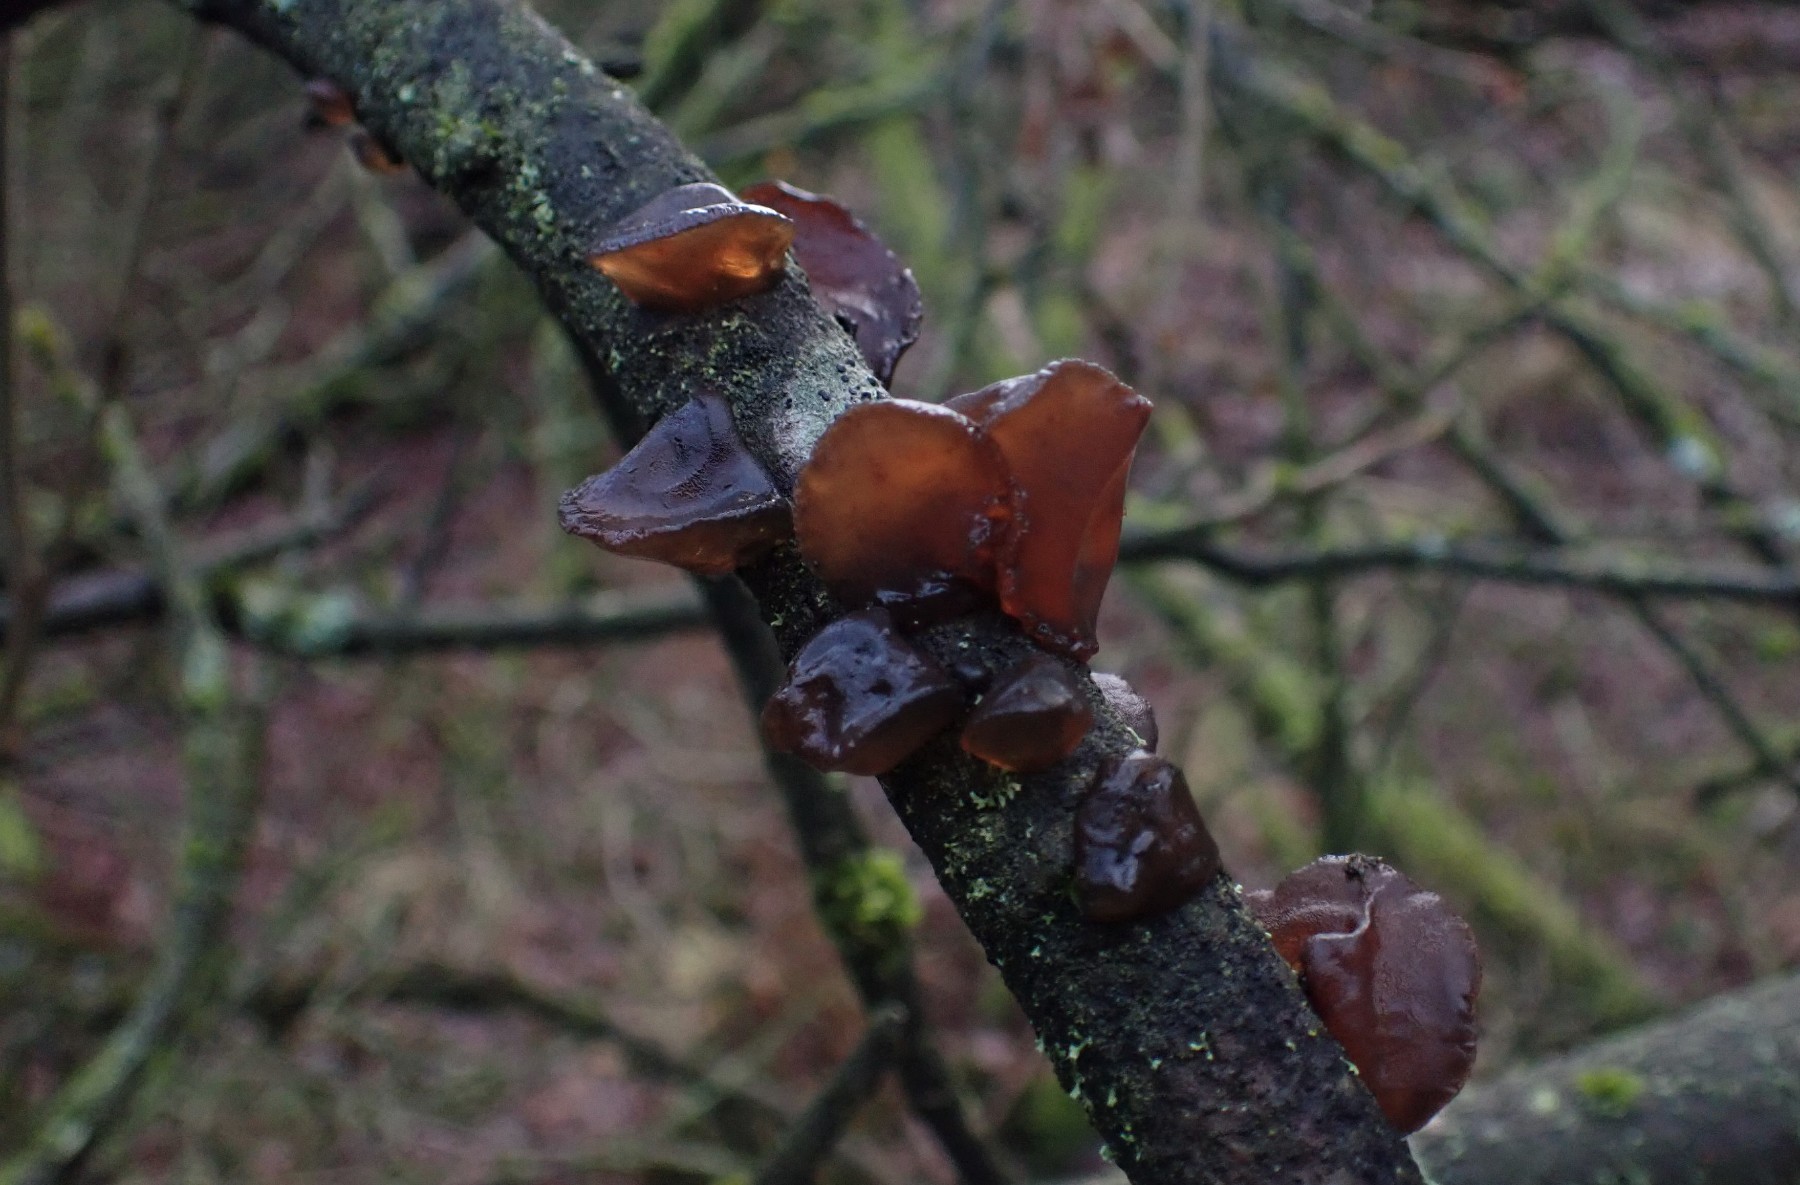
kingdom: Fungi
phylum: Basidiomycota
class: Agaricomycetes
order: Auriculariales
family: Auriculariaceae
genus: Exidia
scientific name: Exidia recisa
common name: pile-bævretop
